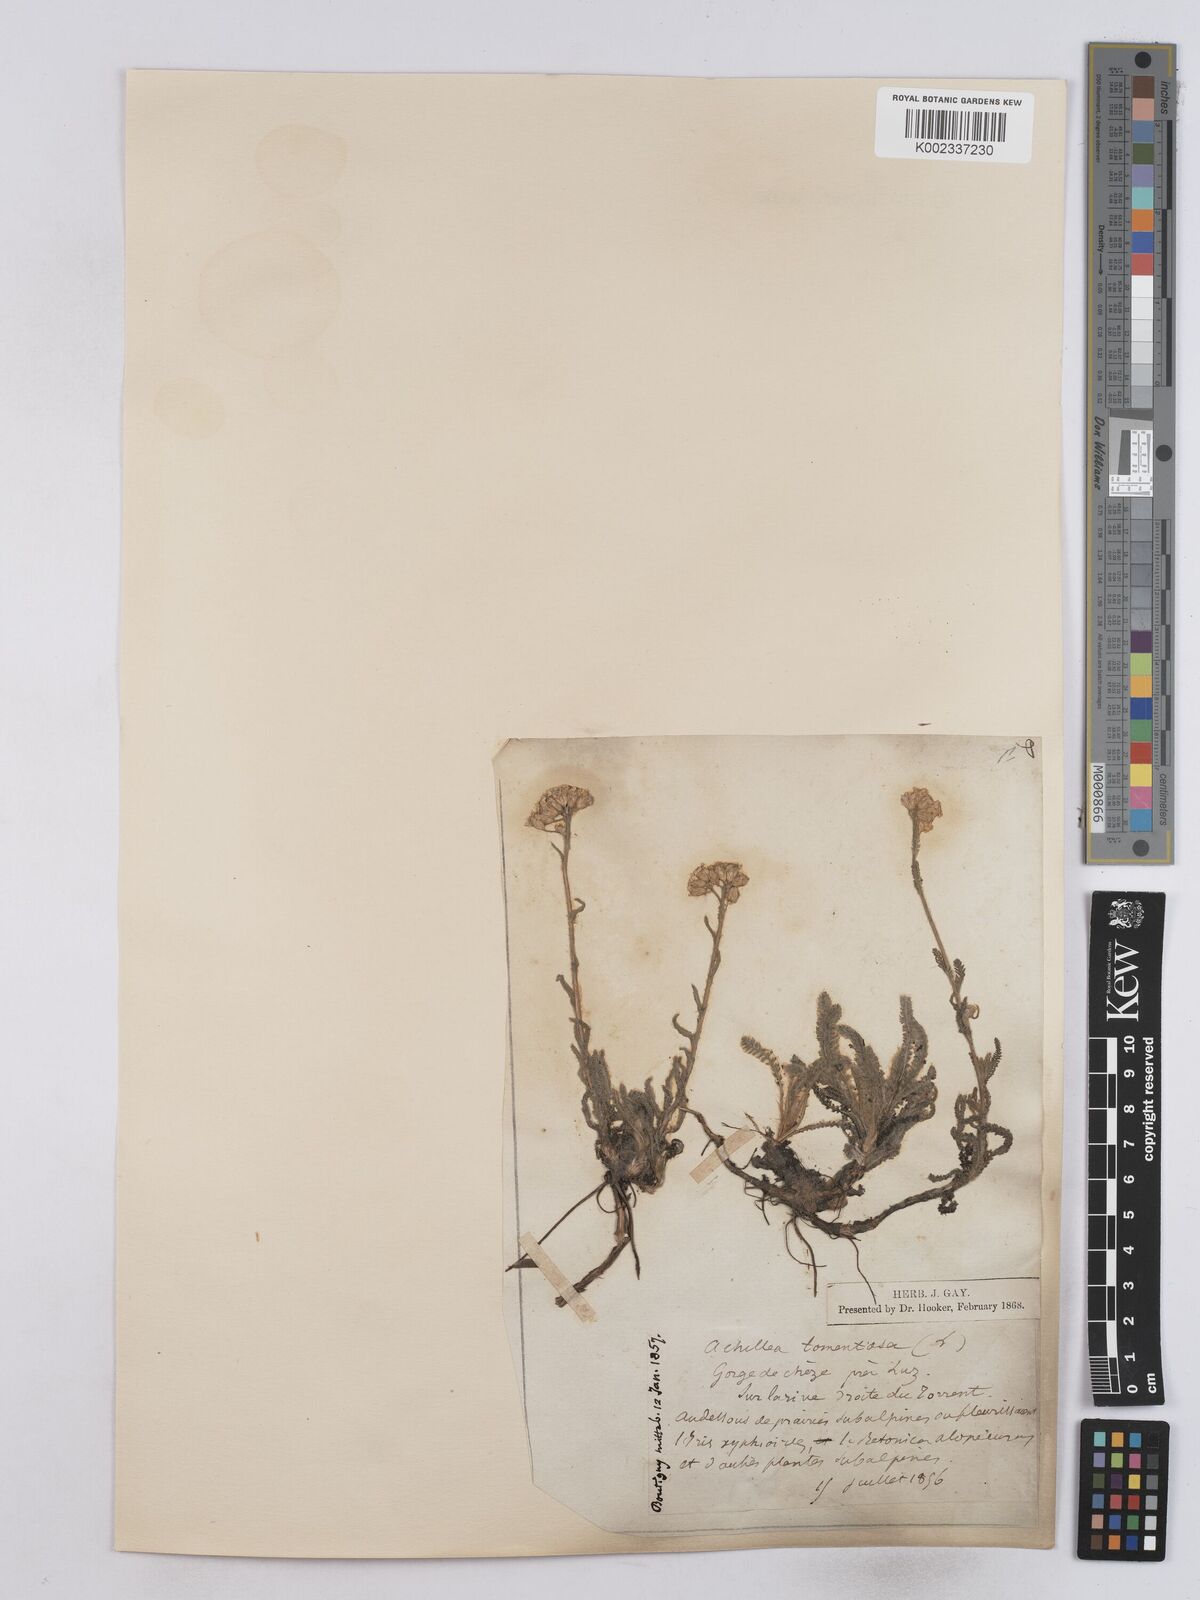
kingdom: Plantae
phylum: Tracheophyta
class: Magnoliopsida
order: Asterales
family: Asteraceae
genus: Achillea
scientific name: Achillea tomentosa
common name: Yellow milfoil
